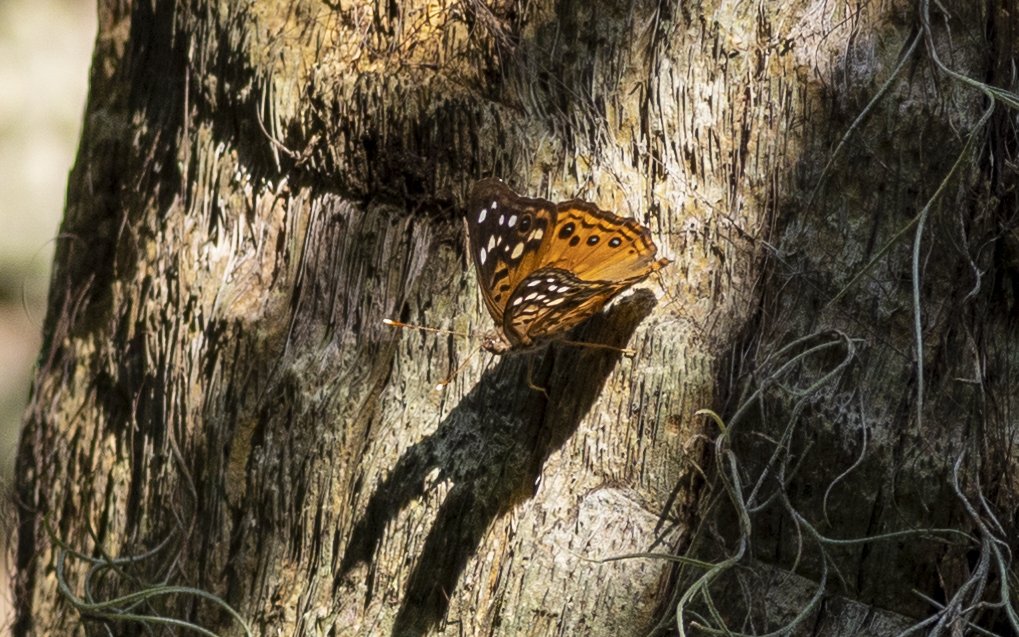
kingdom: Animalia
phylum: Arthropoda
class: Insecta
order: Lepidoptera
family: Nymphalidae
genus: Asterocampa
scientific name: Asterocampa celtis
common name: Hackberry Emperor
